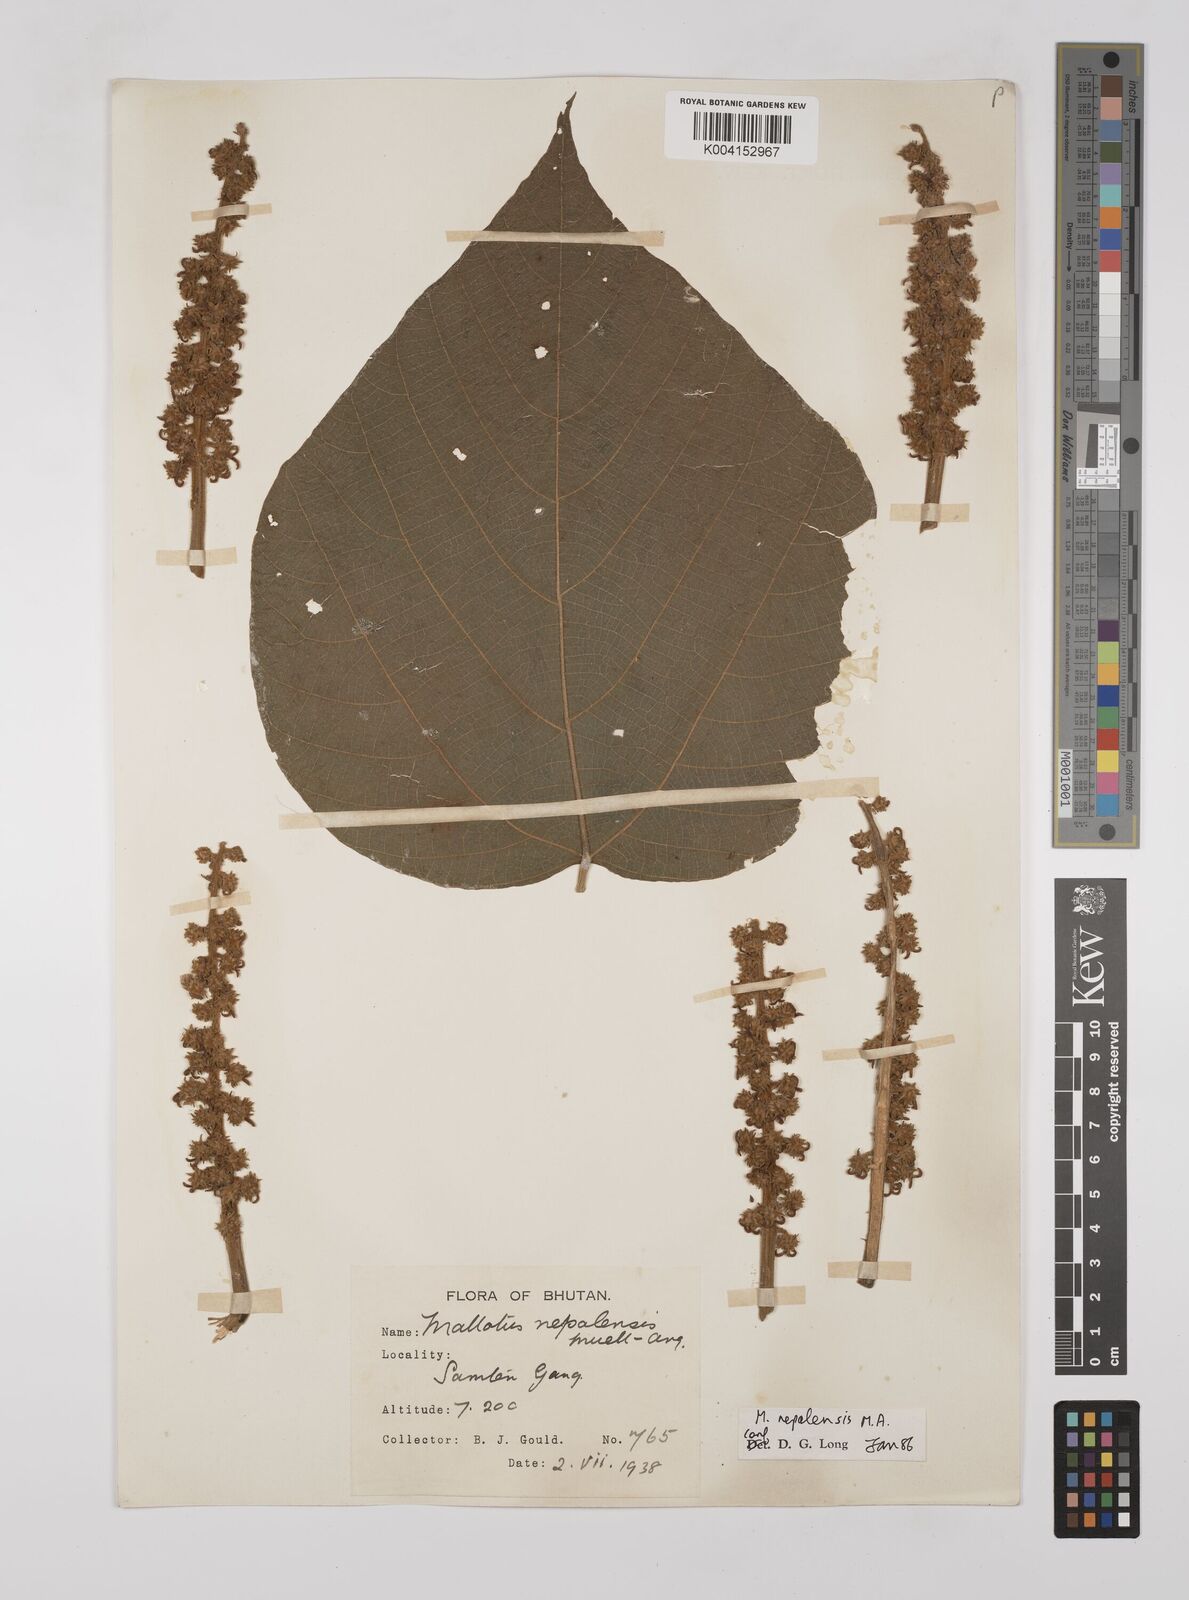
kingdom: Plantae
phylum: Tracheophyta
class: Magnoliopsida
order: Malpighiales
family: Euphorbiaceae
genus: Mallotus
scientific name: Mallotus nepalensis
